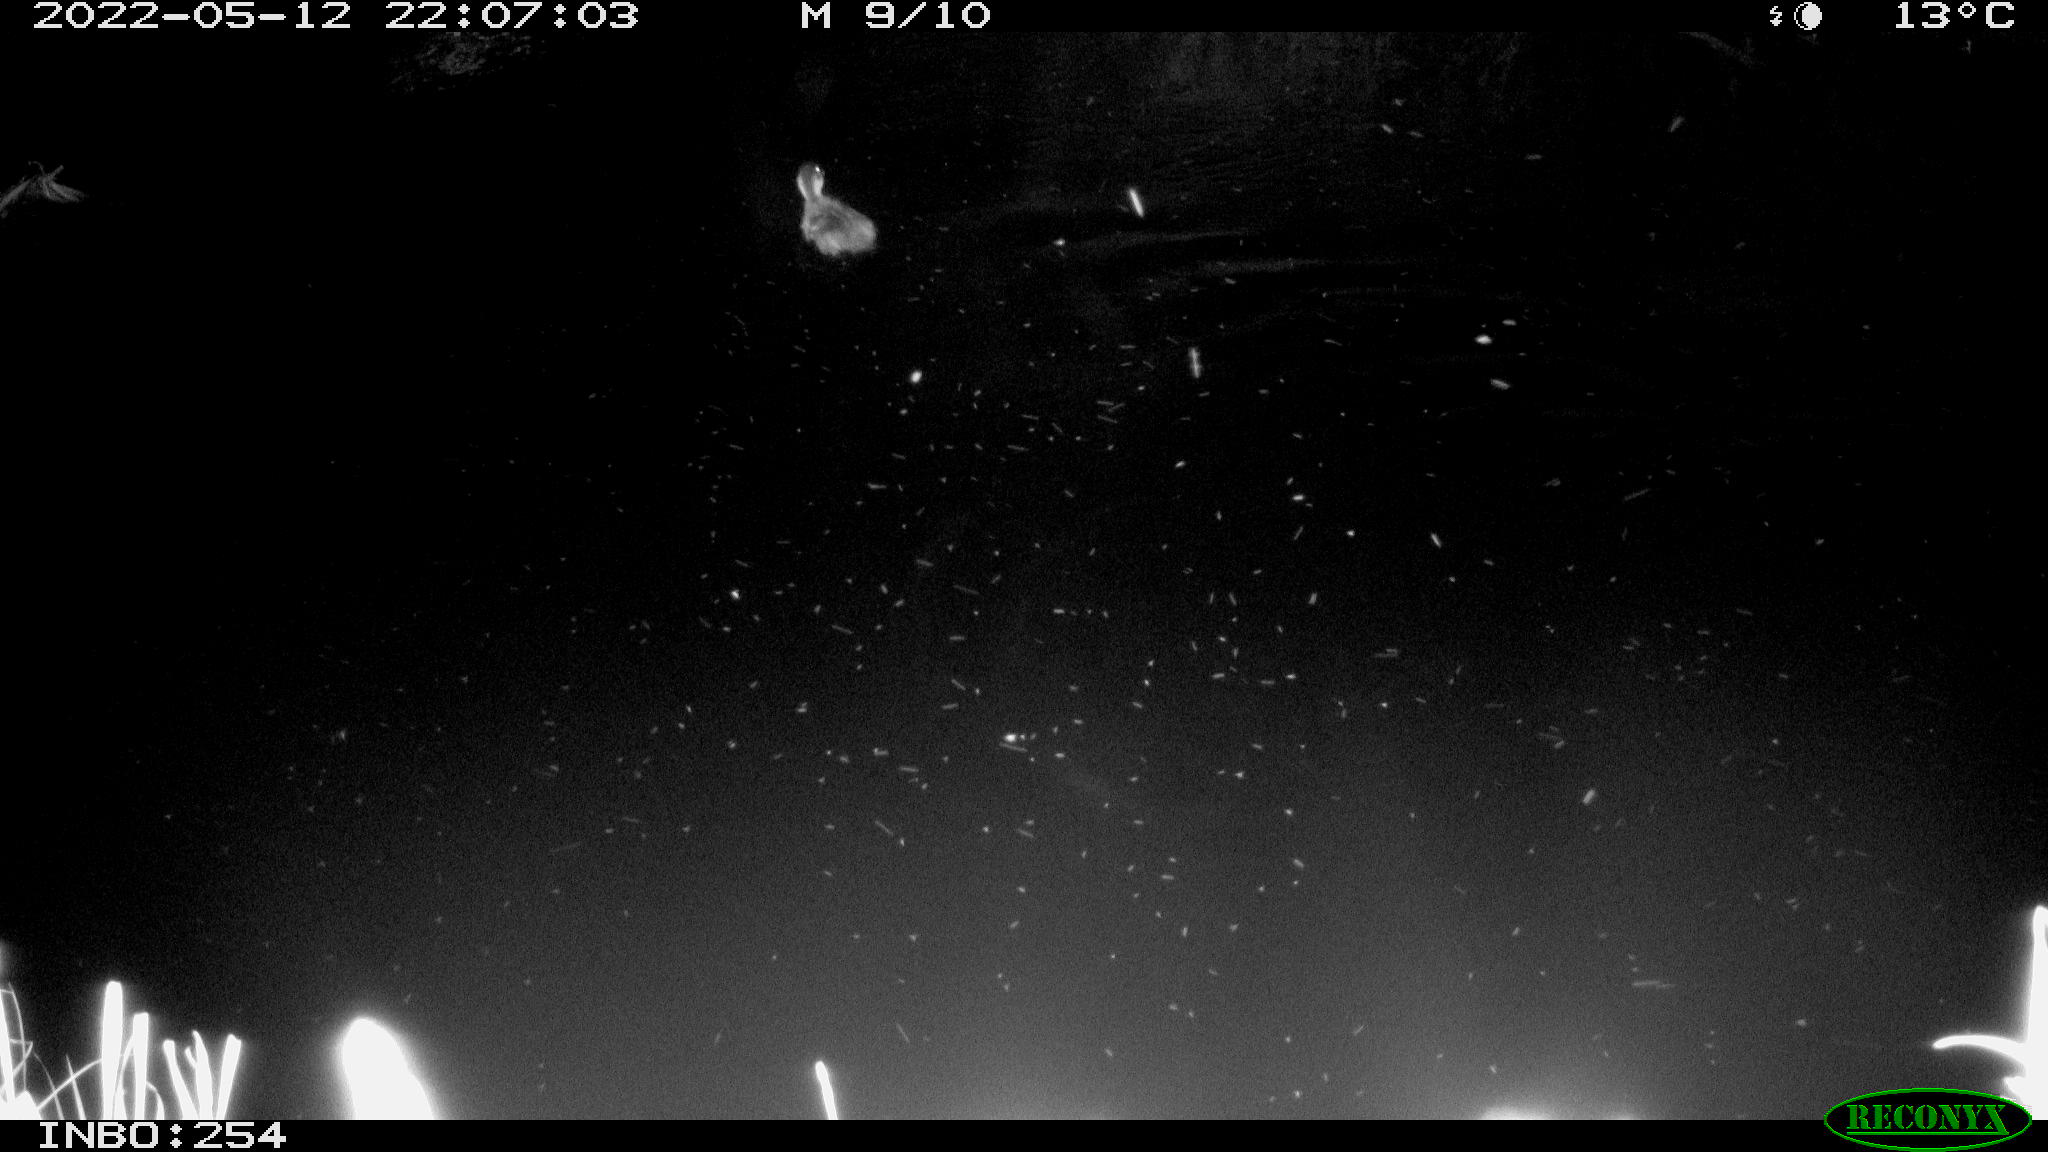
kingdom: Animalia
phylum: Chordata
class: Aves
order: Anseriformes
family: Anatidae
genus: Anas
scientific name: Anas platyrhynchos
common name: Mallard
